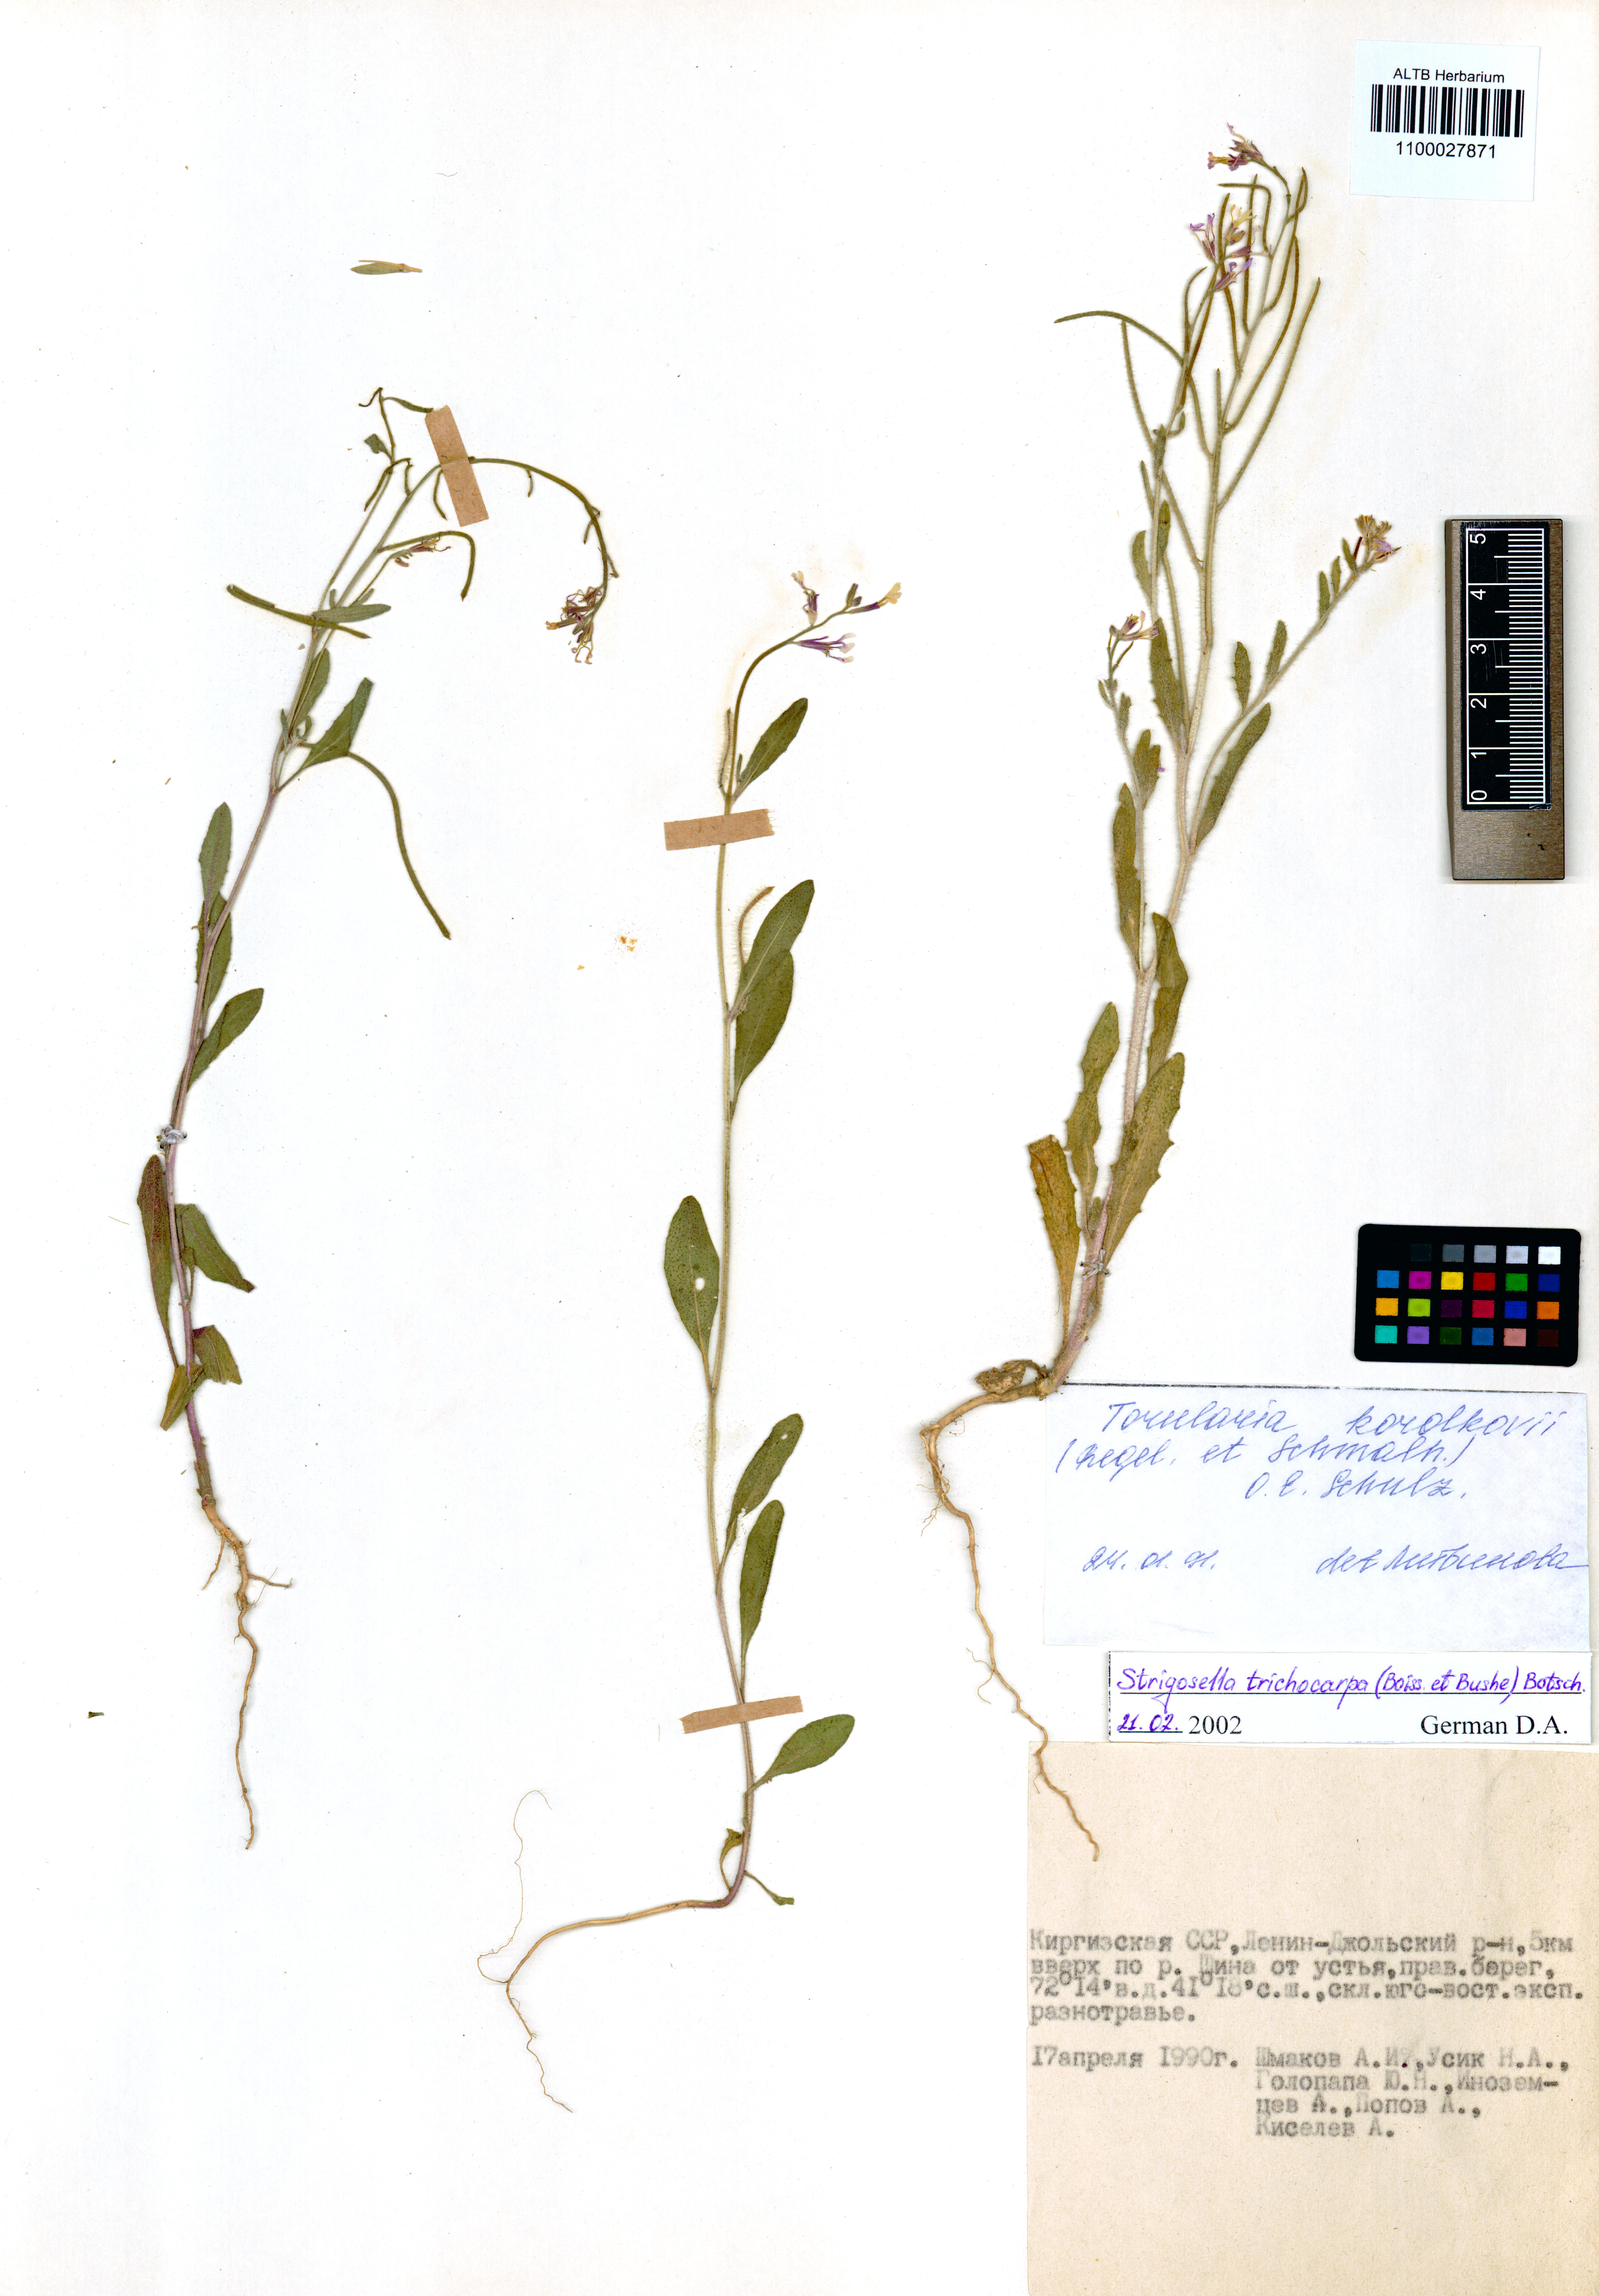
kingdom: Plantae
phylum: Tracheophyta
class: Magnoliopsida
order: Brassicales
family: Brassicaceae
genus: Strigosella
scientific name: Strigosella trichocarpa
